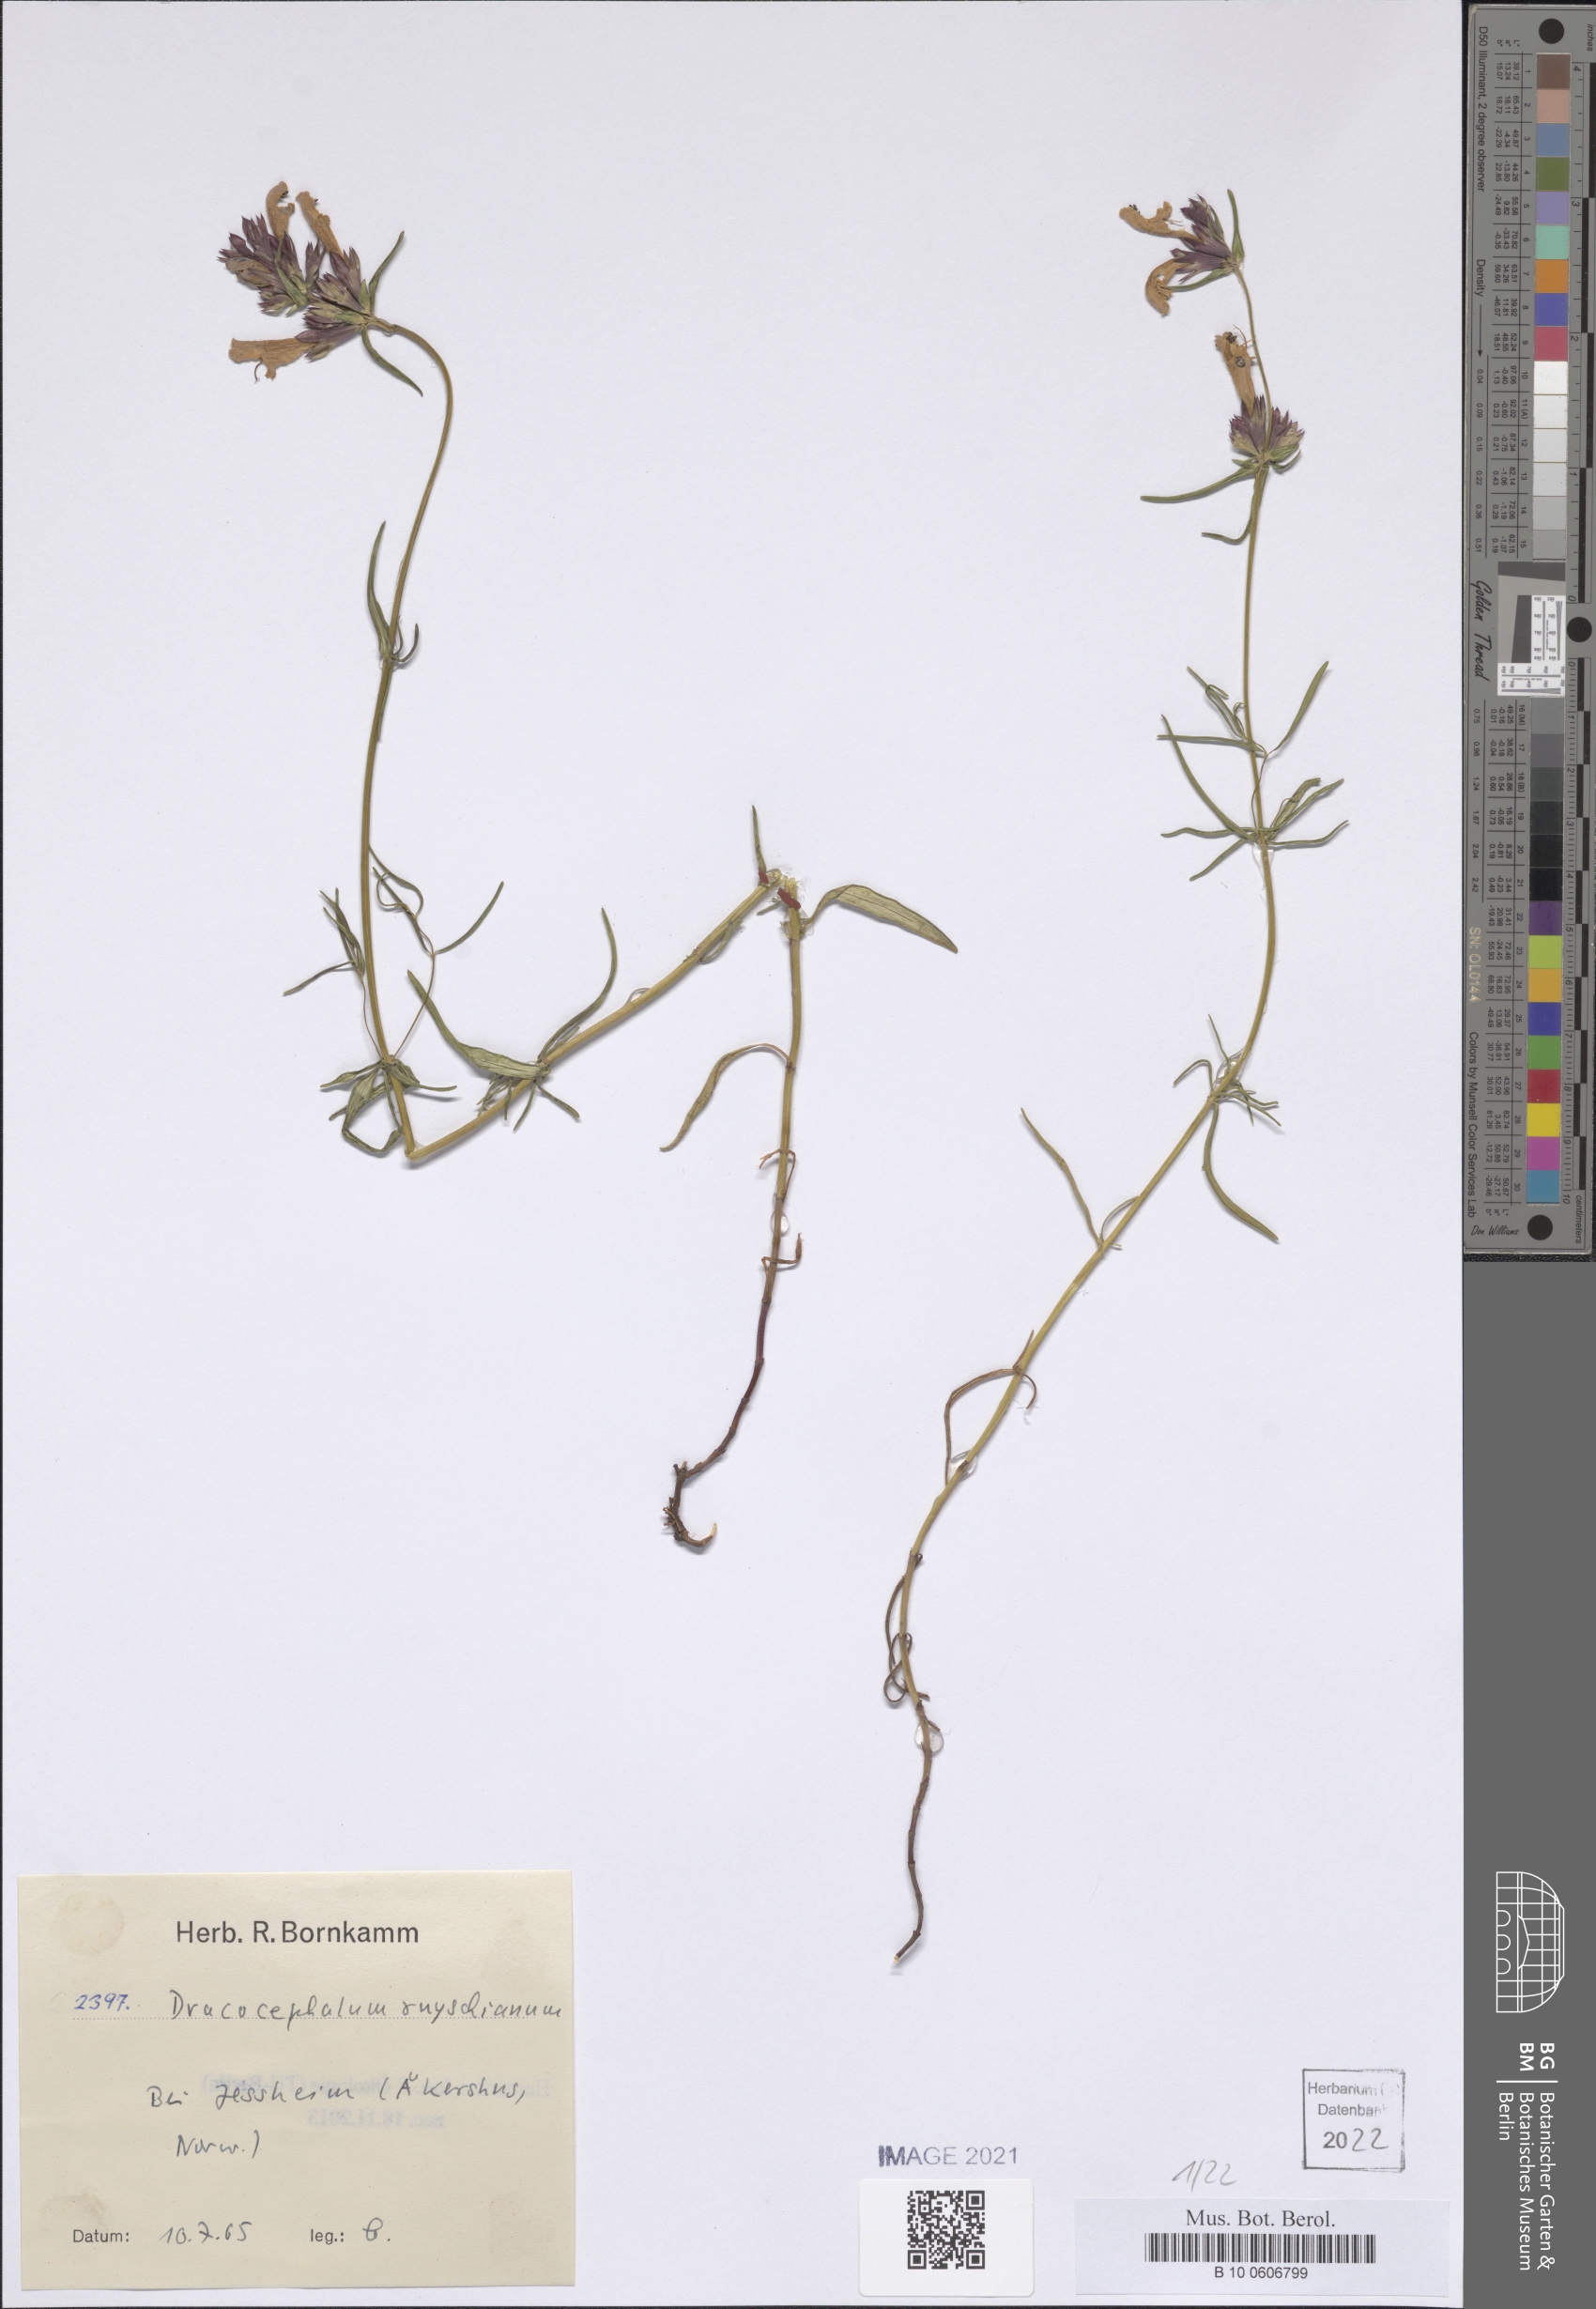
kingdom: Plantae
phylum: Tracheophyta
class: Magnoliopsida
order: Lamiales
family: Lamiaceae
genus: Dracocephalum
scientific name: Dracocephalum ruyschiana
